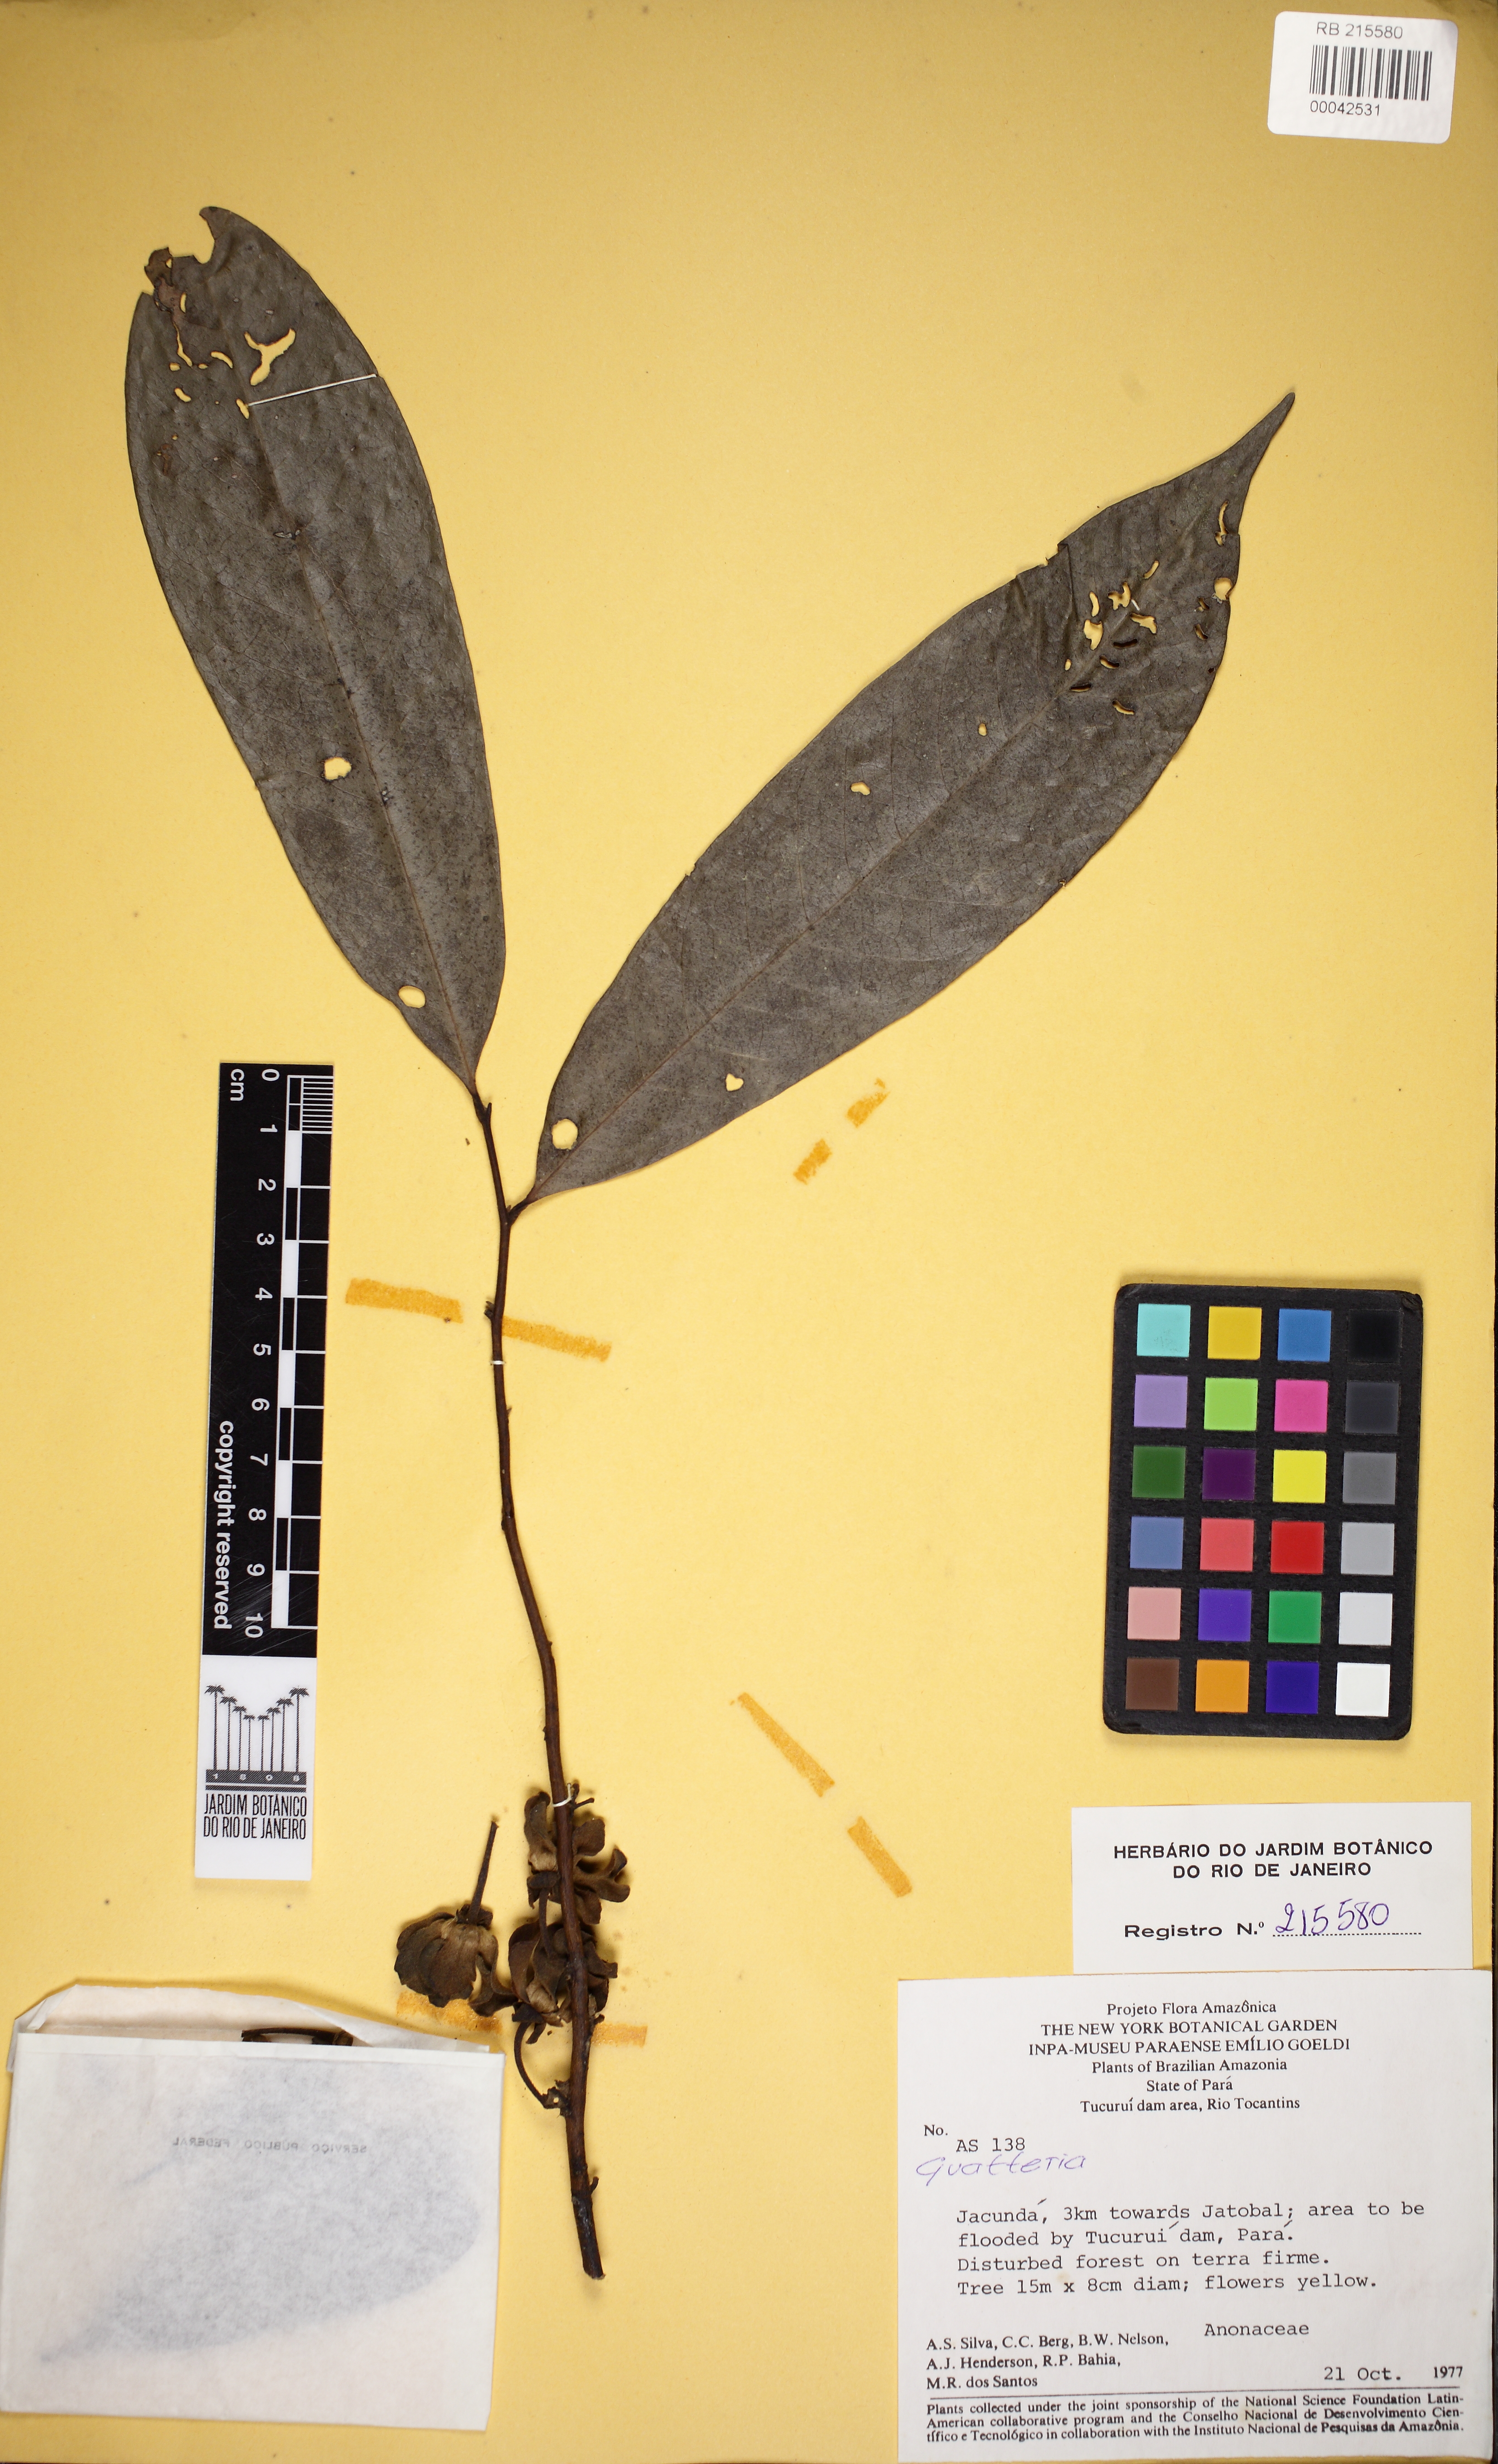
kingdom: Plantae
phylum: Tracheophyta
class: Magnoliopsida
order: Magnoliales
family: Annonaceae
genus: Guatteria
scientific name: Guatteria
